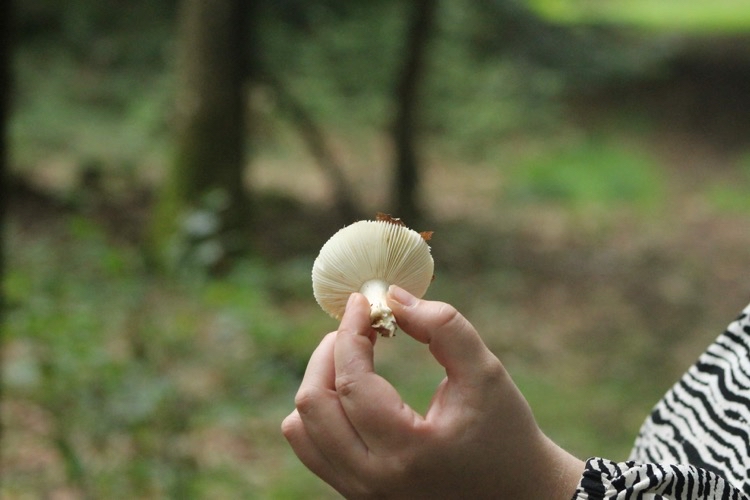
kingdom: Fungi
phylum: Basidiomycota
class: Agaricomycetes
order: Russulales
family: Russulaceae
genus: Russula
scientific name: Russula
